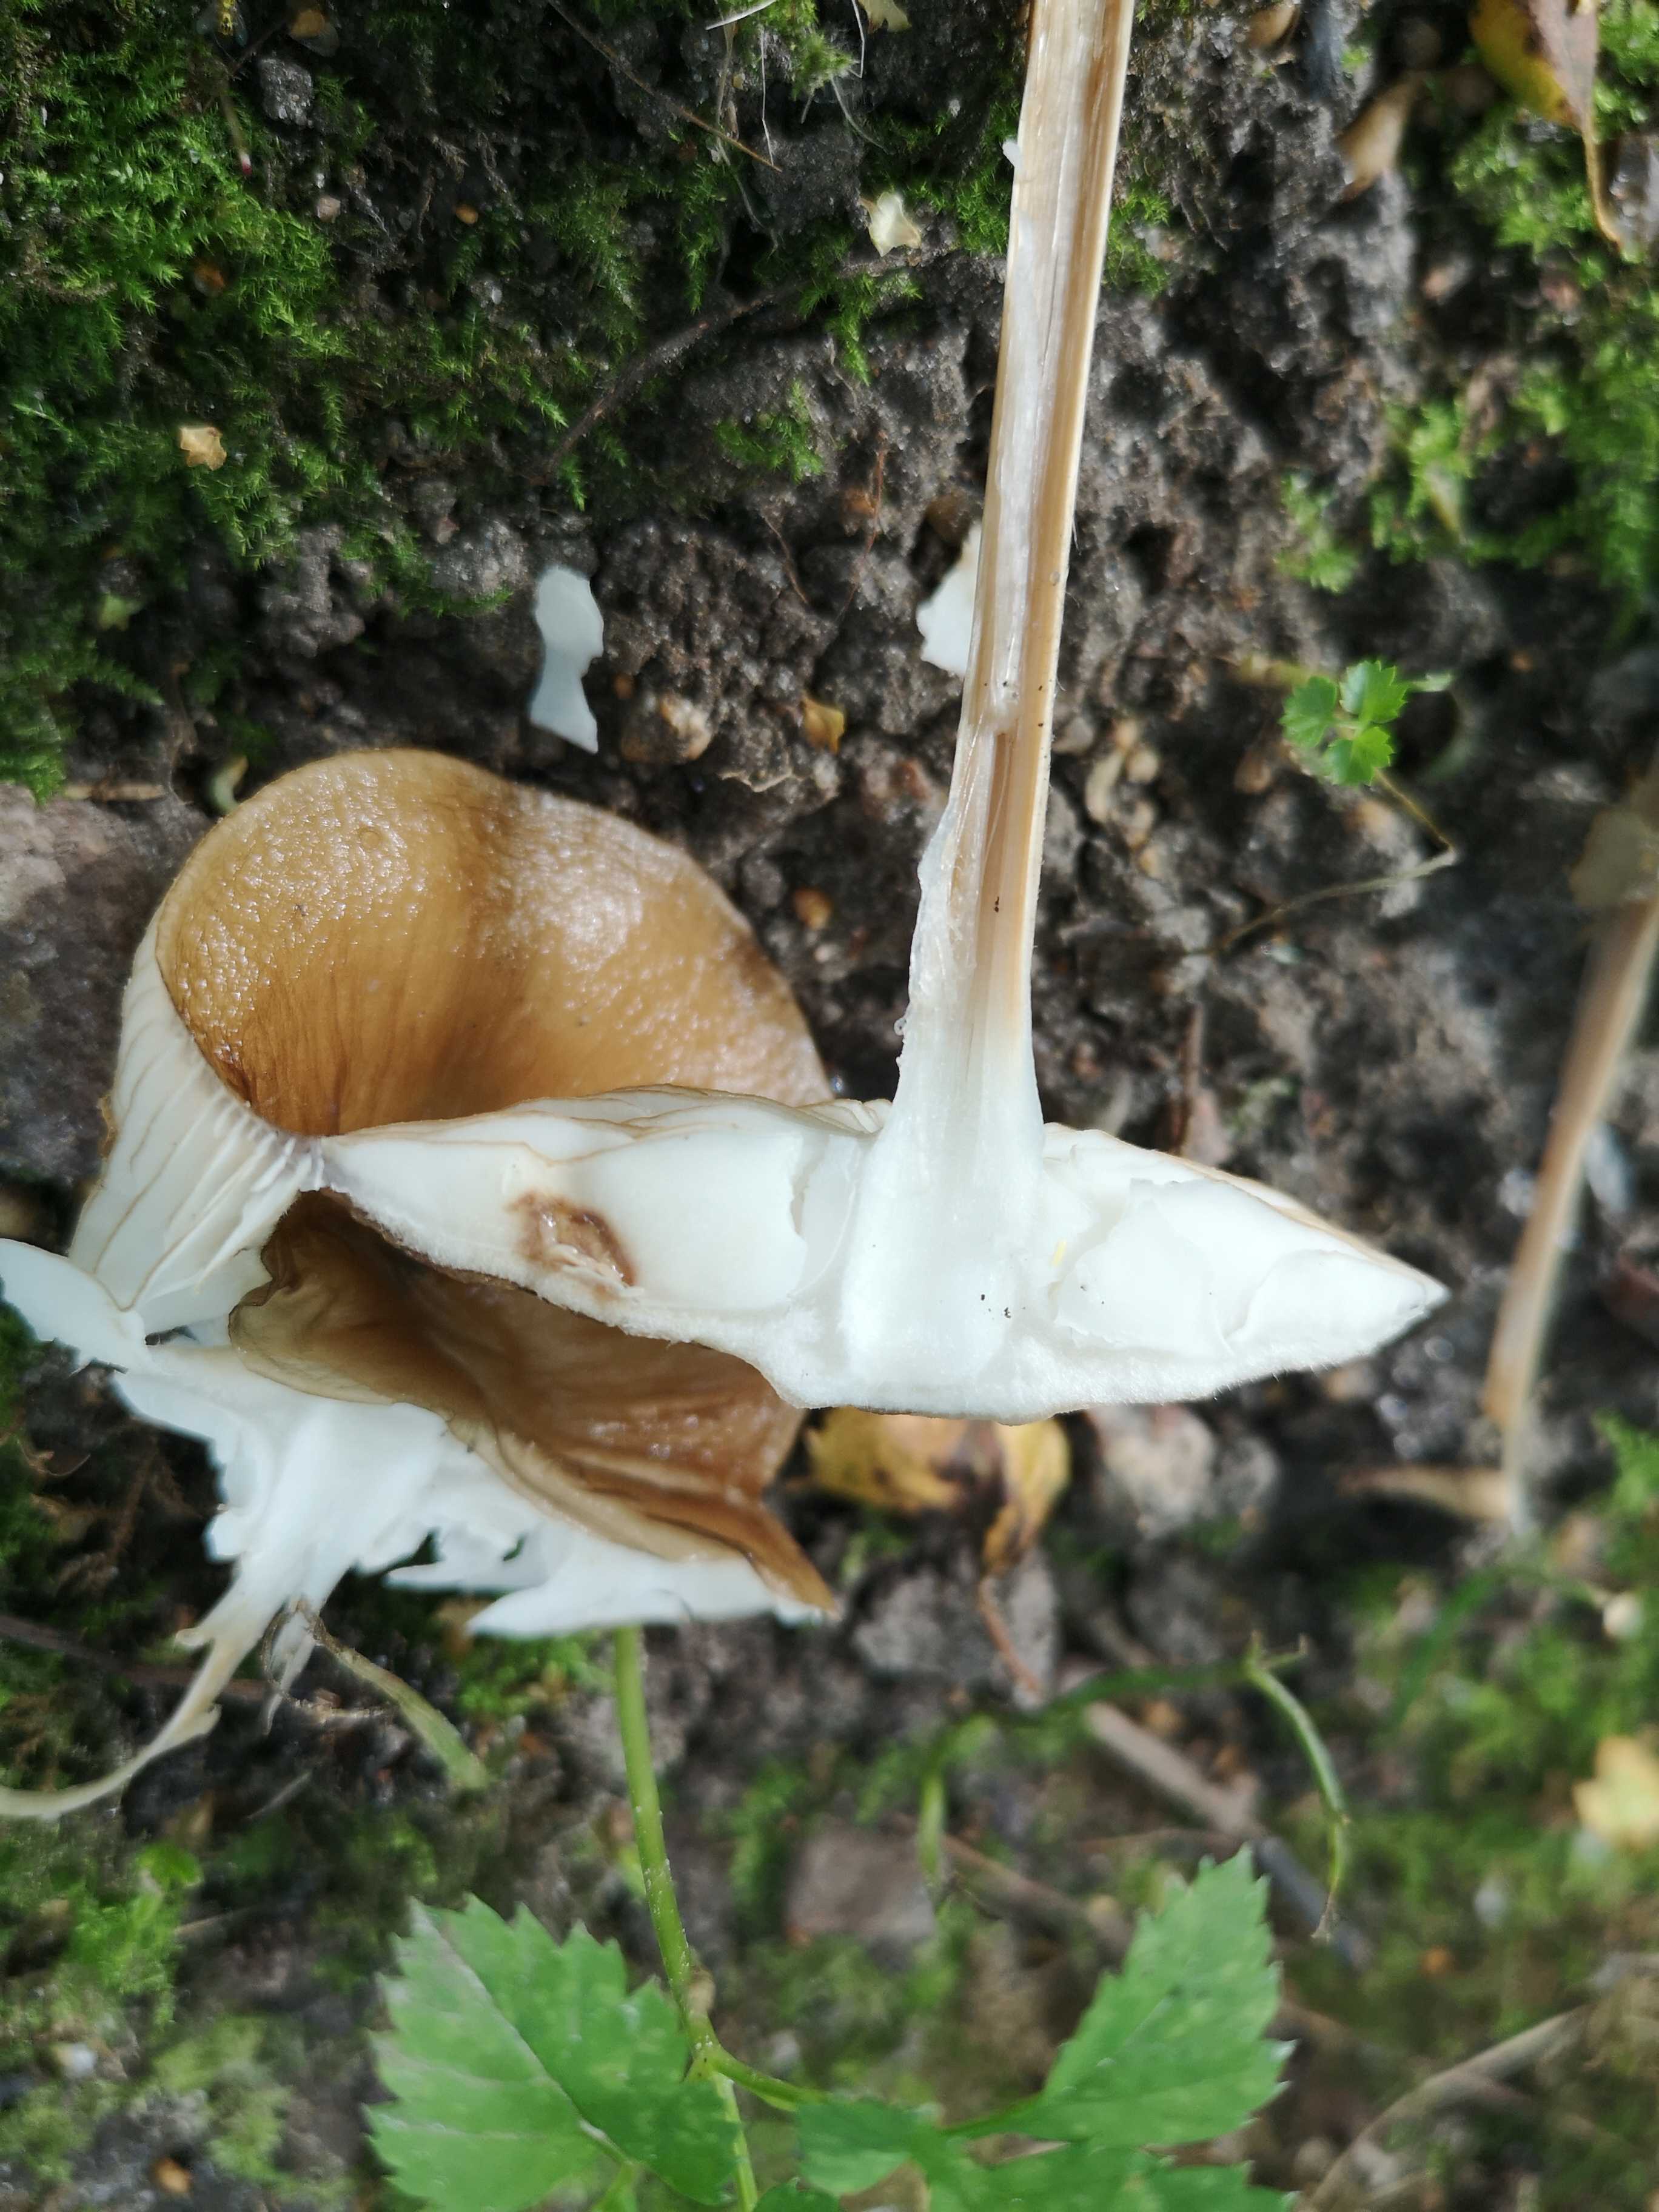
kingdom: Fungi
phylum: Basidiomycota
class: Agaricomycetes
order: Agaricales
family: Physalacriaceae
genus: Hymenopellis
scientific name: Hymenopellis radicata
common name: almindelig pælerodshat
